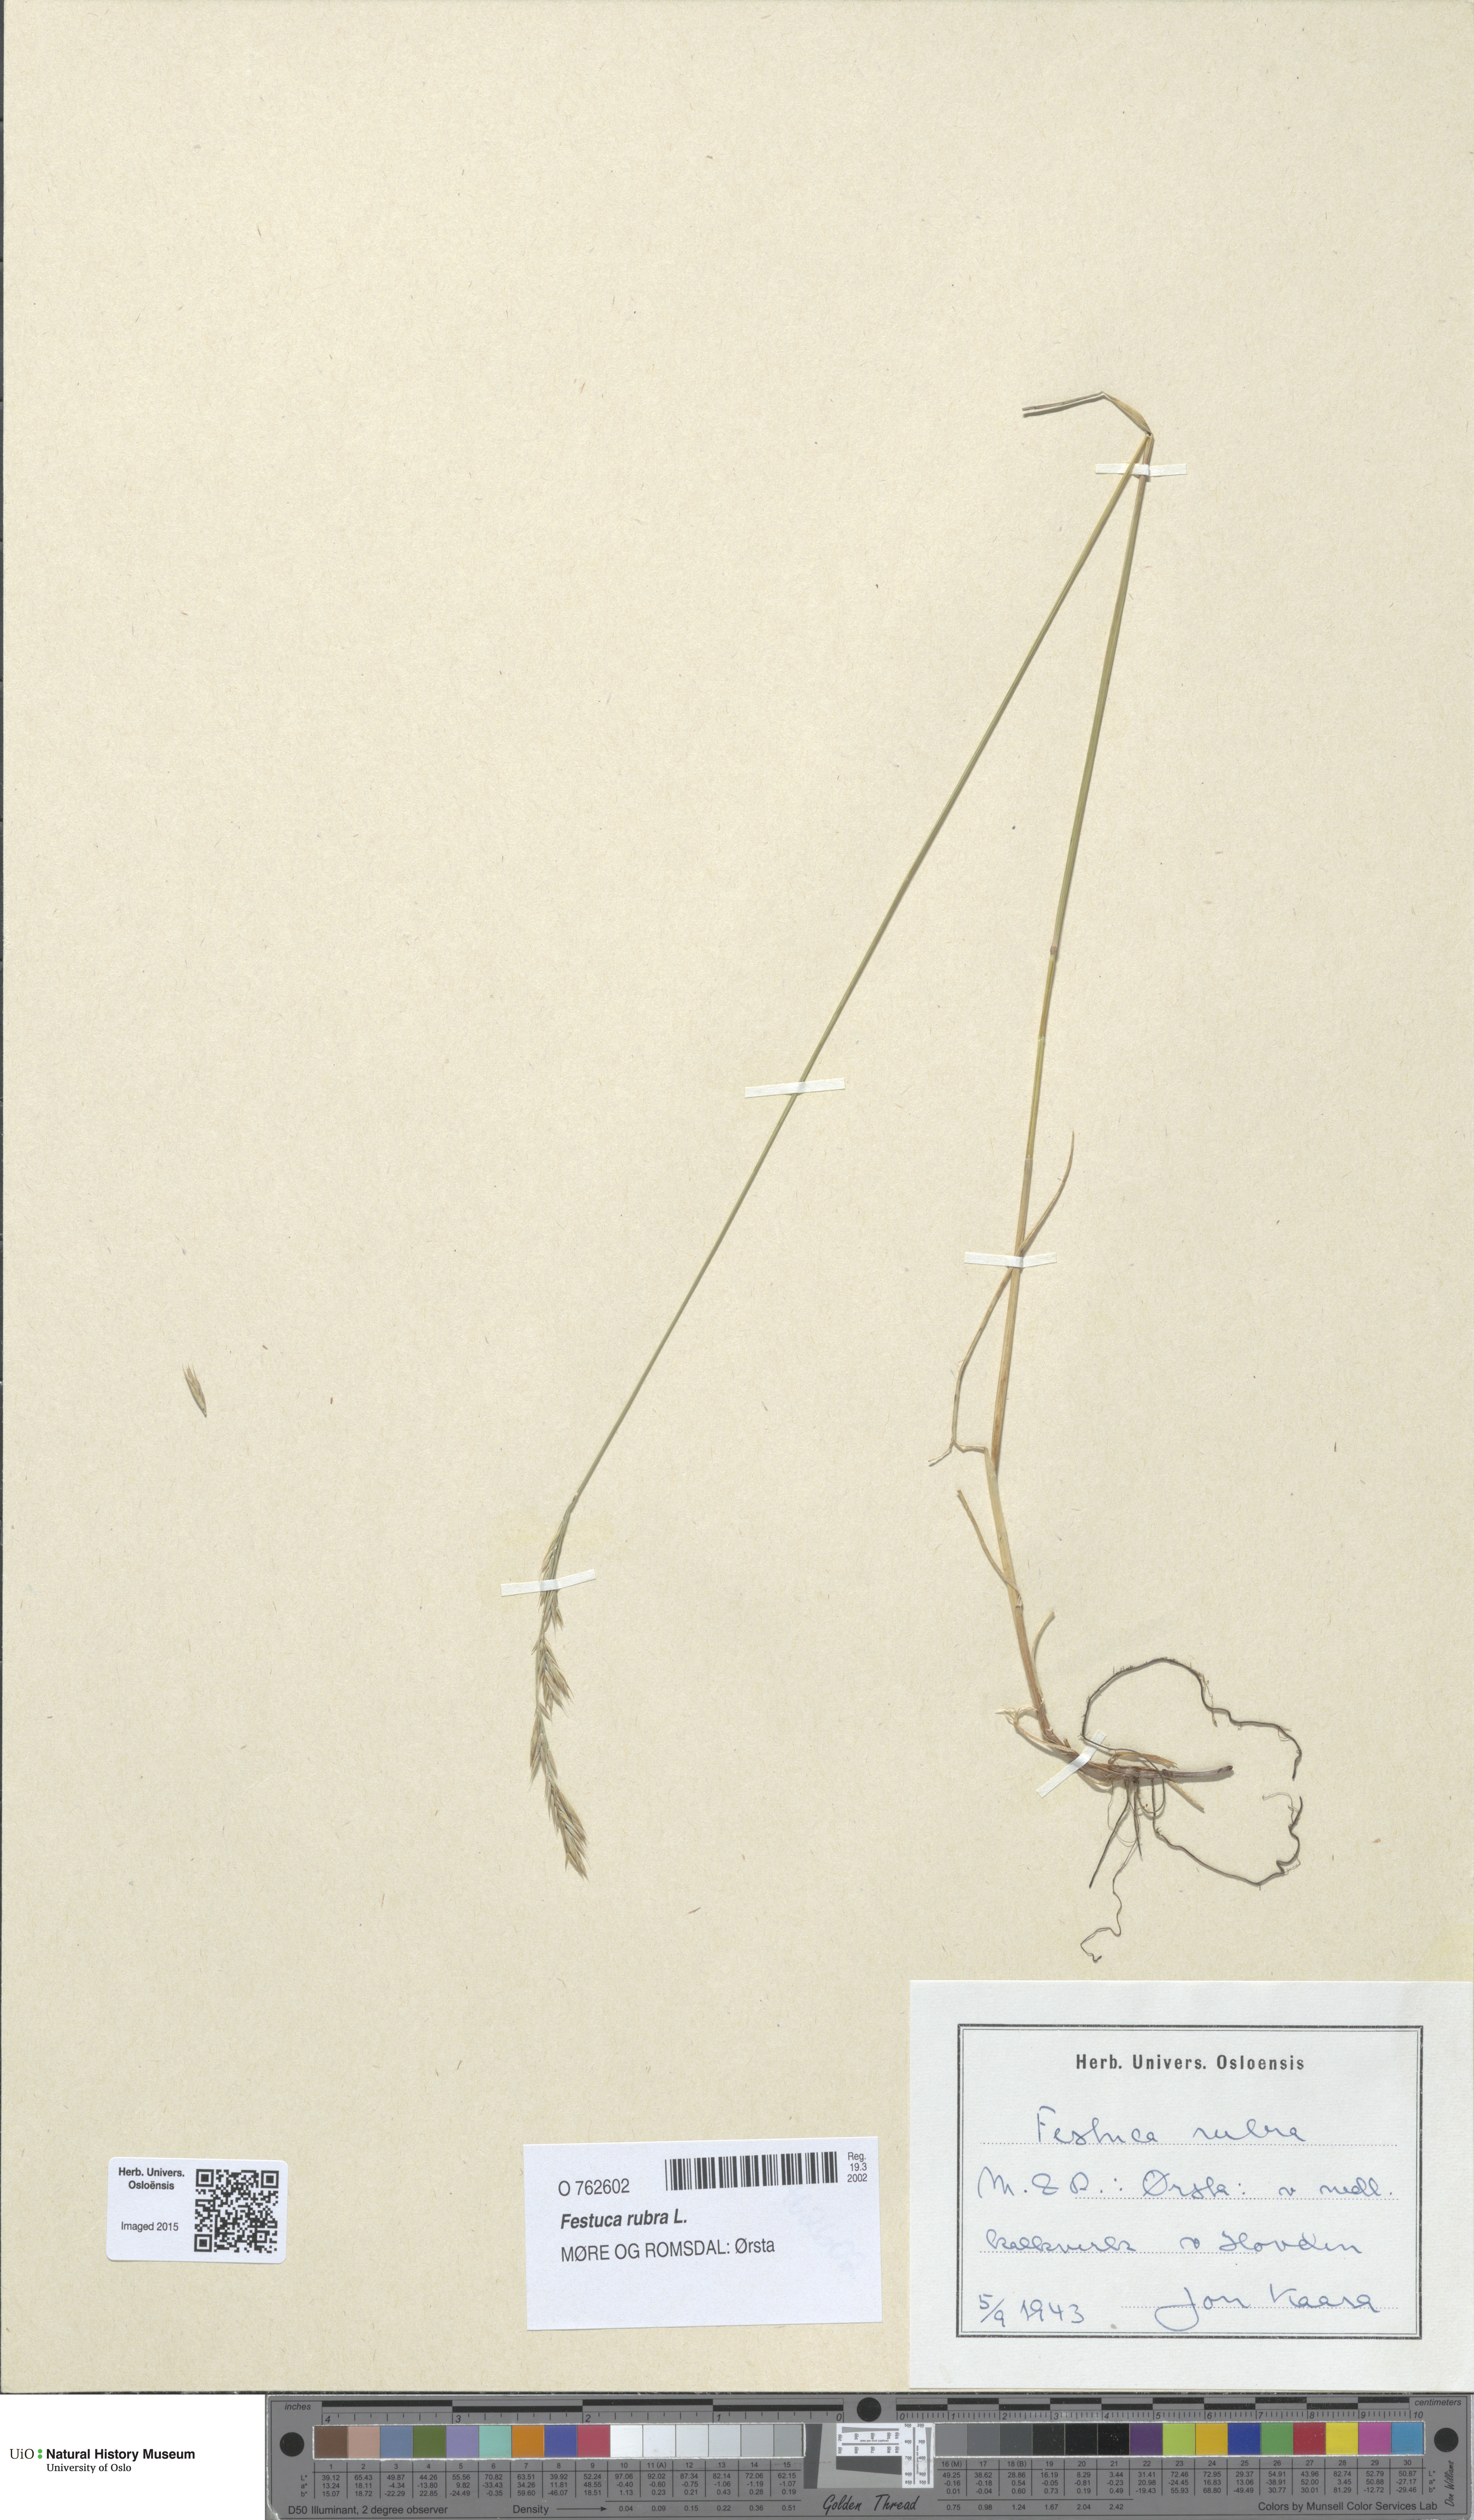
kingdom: Plantae
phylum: Tracheophyta
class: Liliopsida
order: Poales
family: Poaceae
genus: Festuca
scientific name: Festuca rubra
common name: Red fescue
